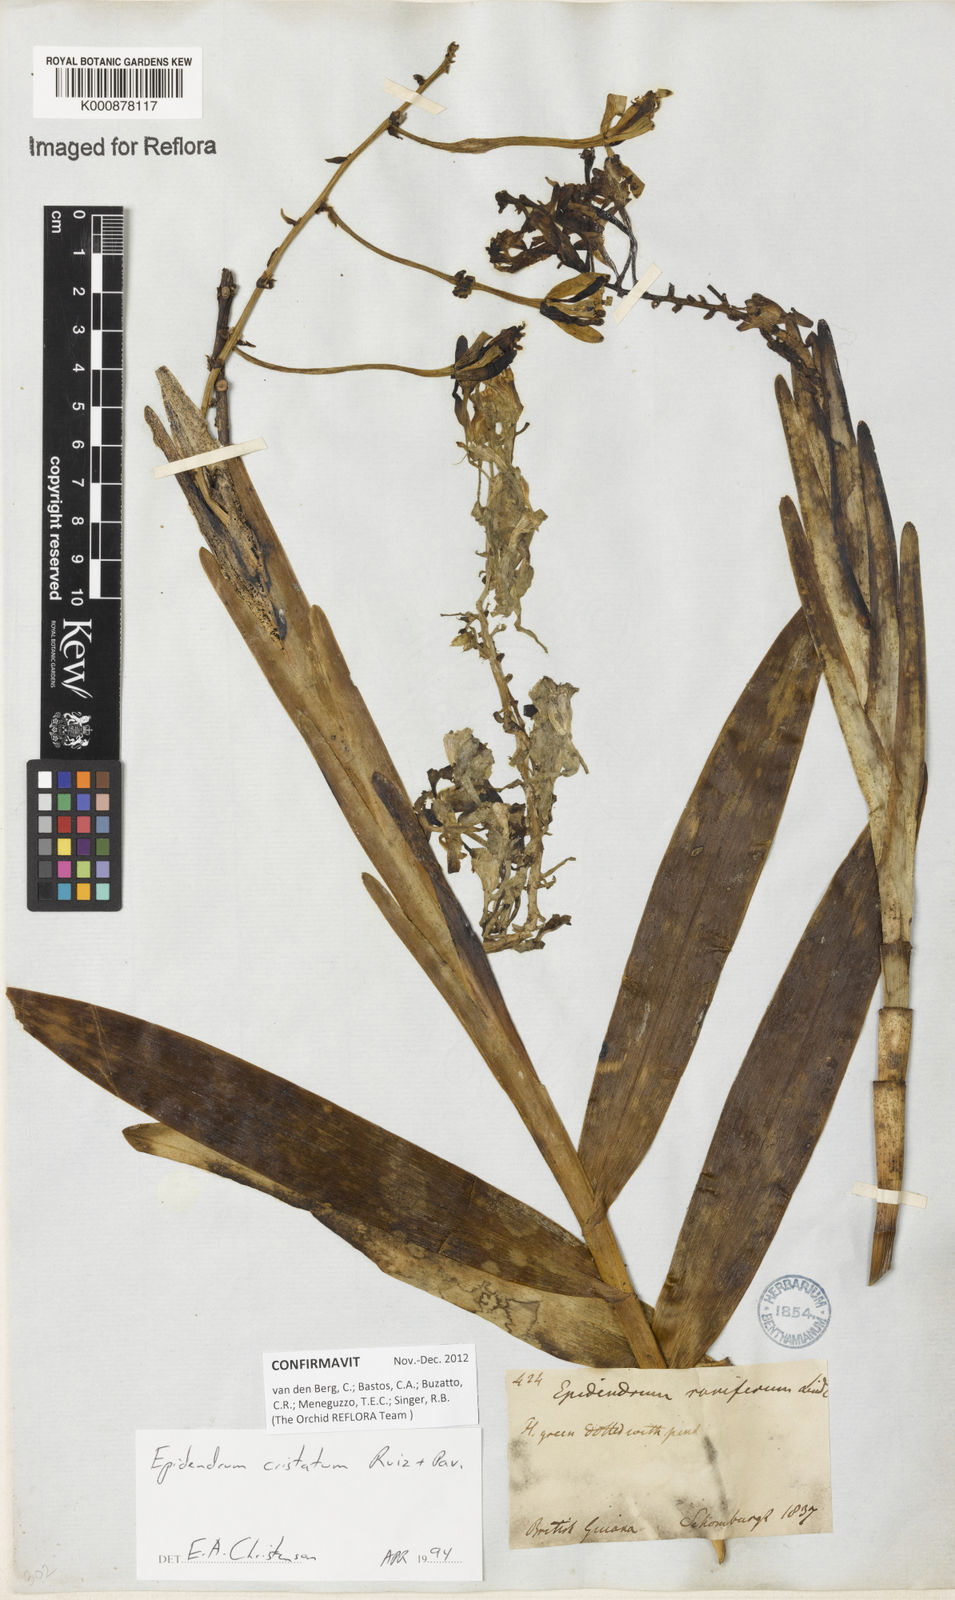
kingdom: Plantae
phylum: Tracheophyta
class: Liliopsida
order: Asparagales
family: Orchidaceae
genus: Epidendrum
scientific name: Epidendrum cristatum
